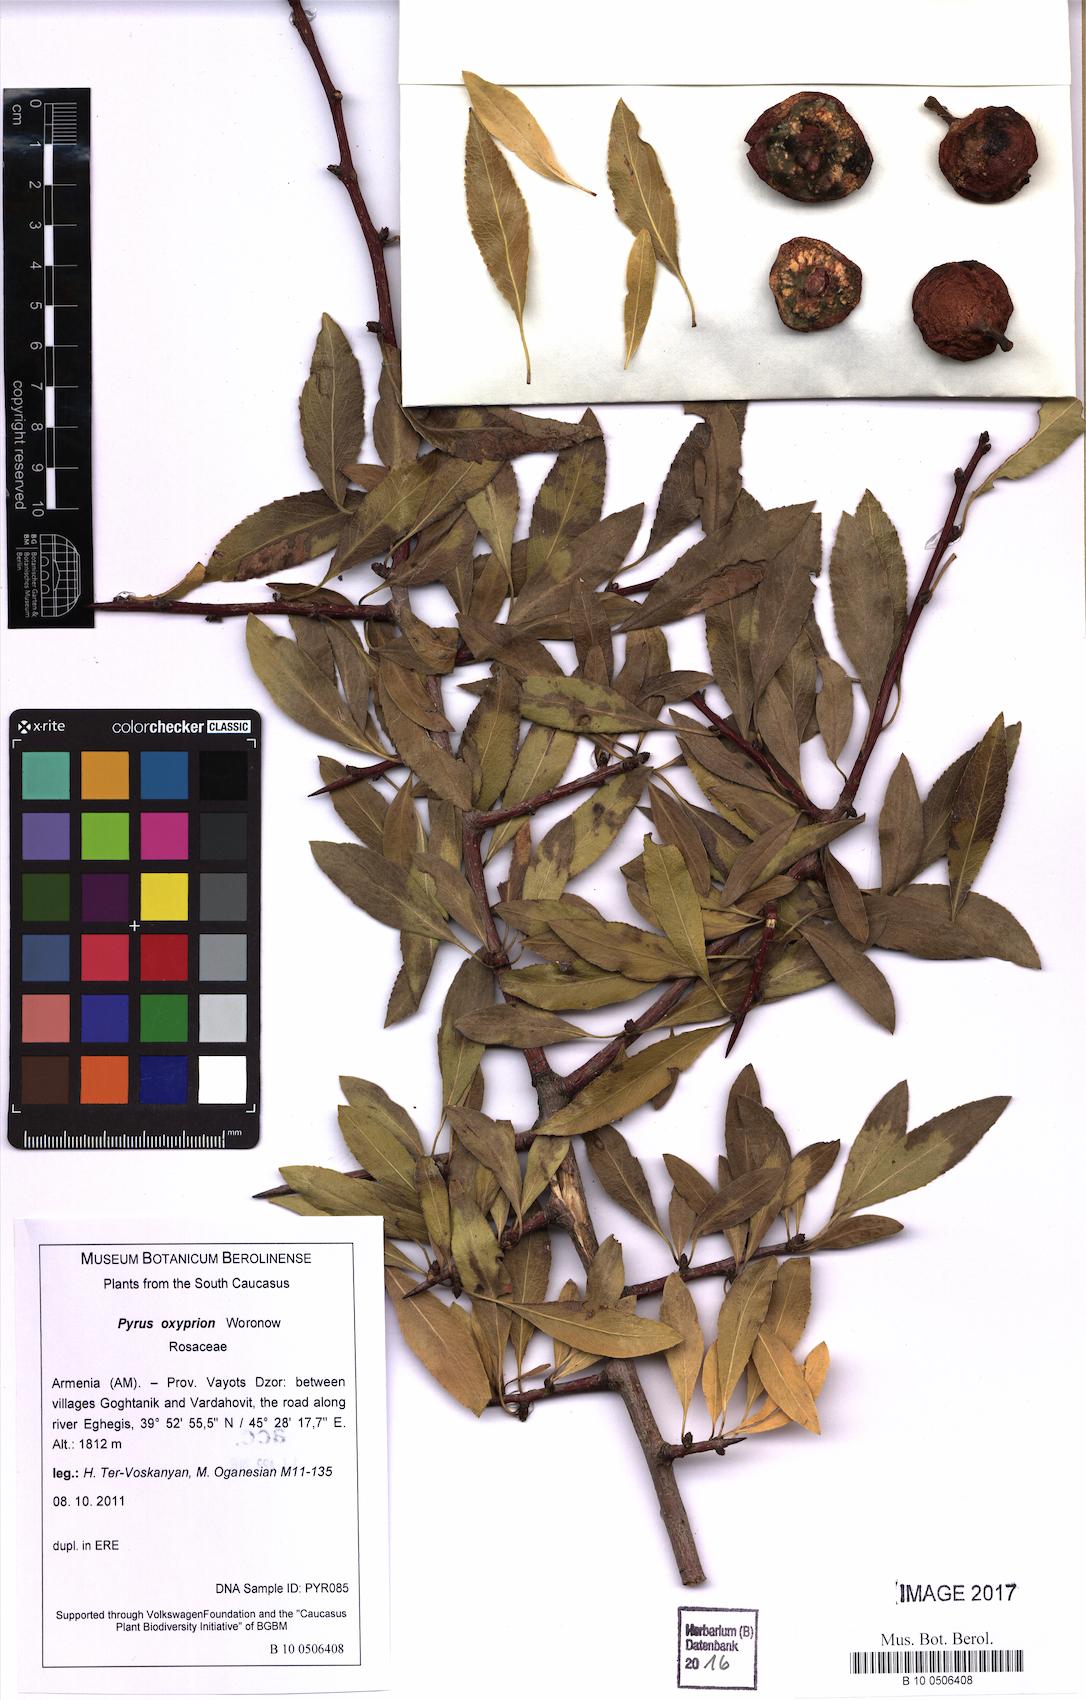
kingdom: Plantae
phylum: Tracheophyta
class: Magnoliopsida
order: Rosales
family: Rosaceae
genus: Pyrus
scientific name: Pyrus oxyprion
